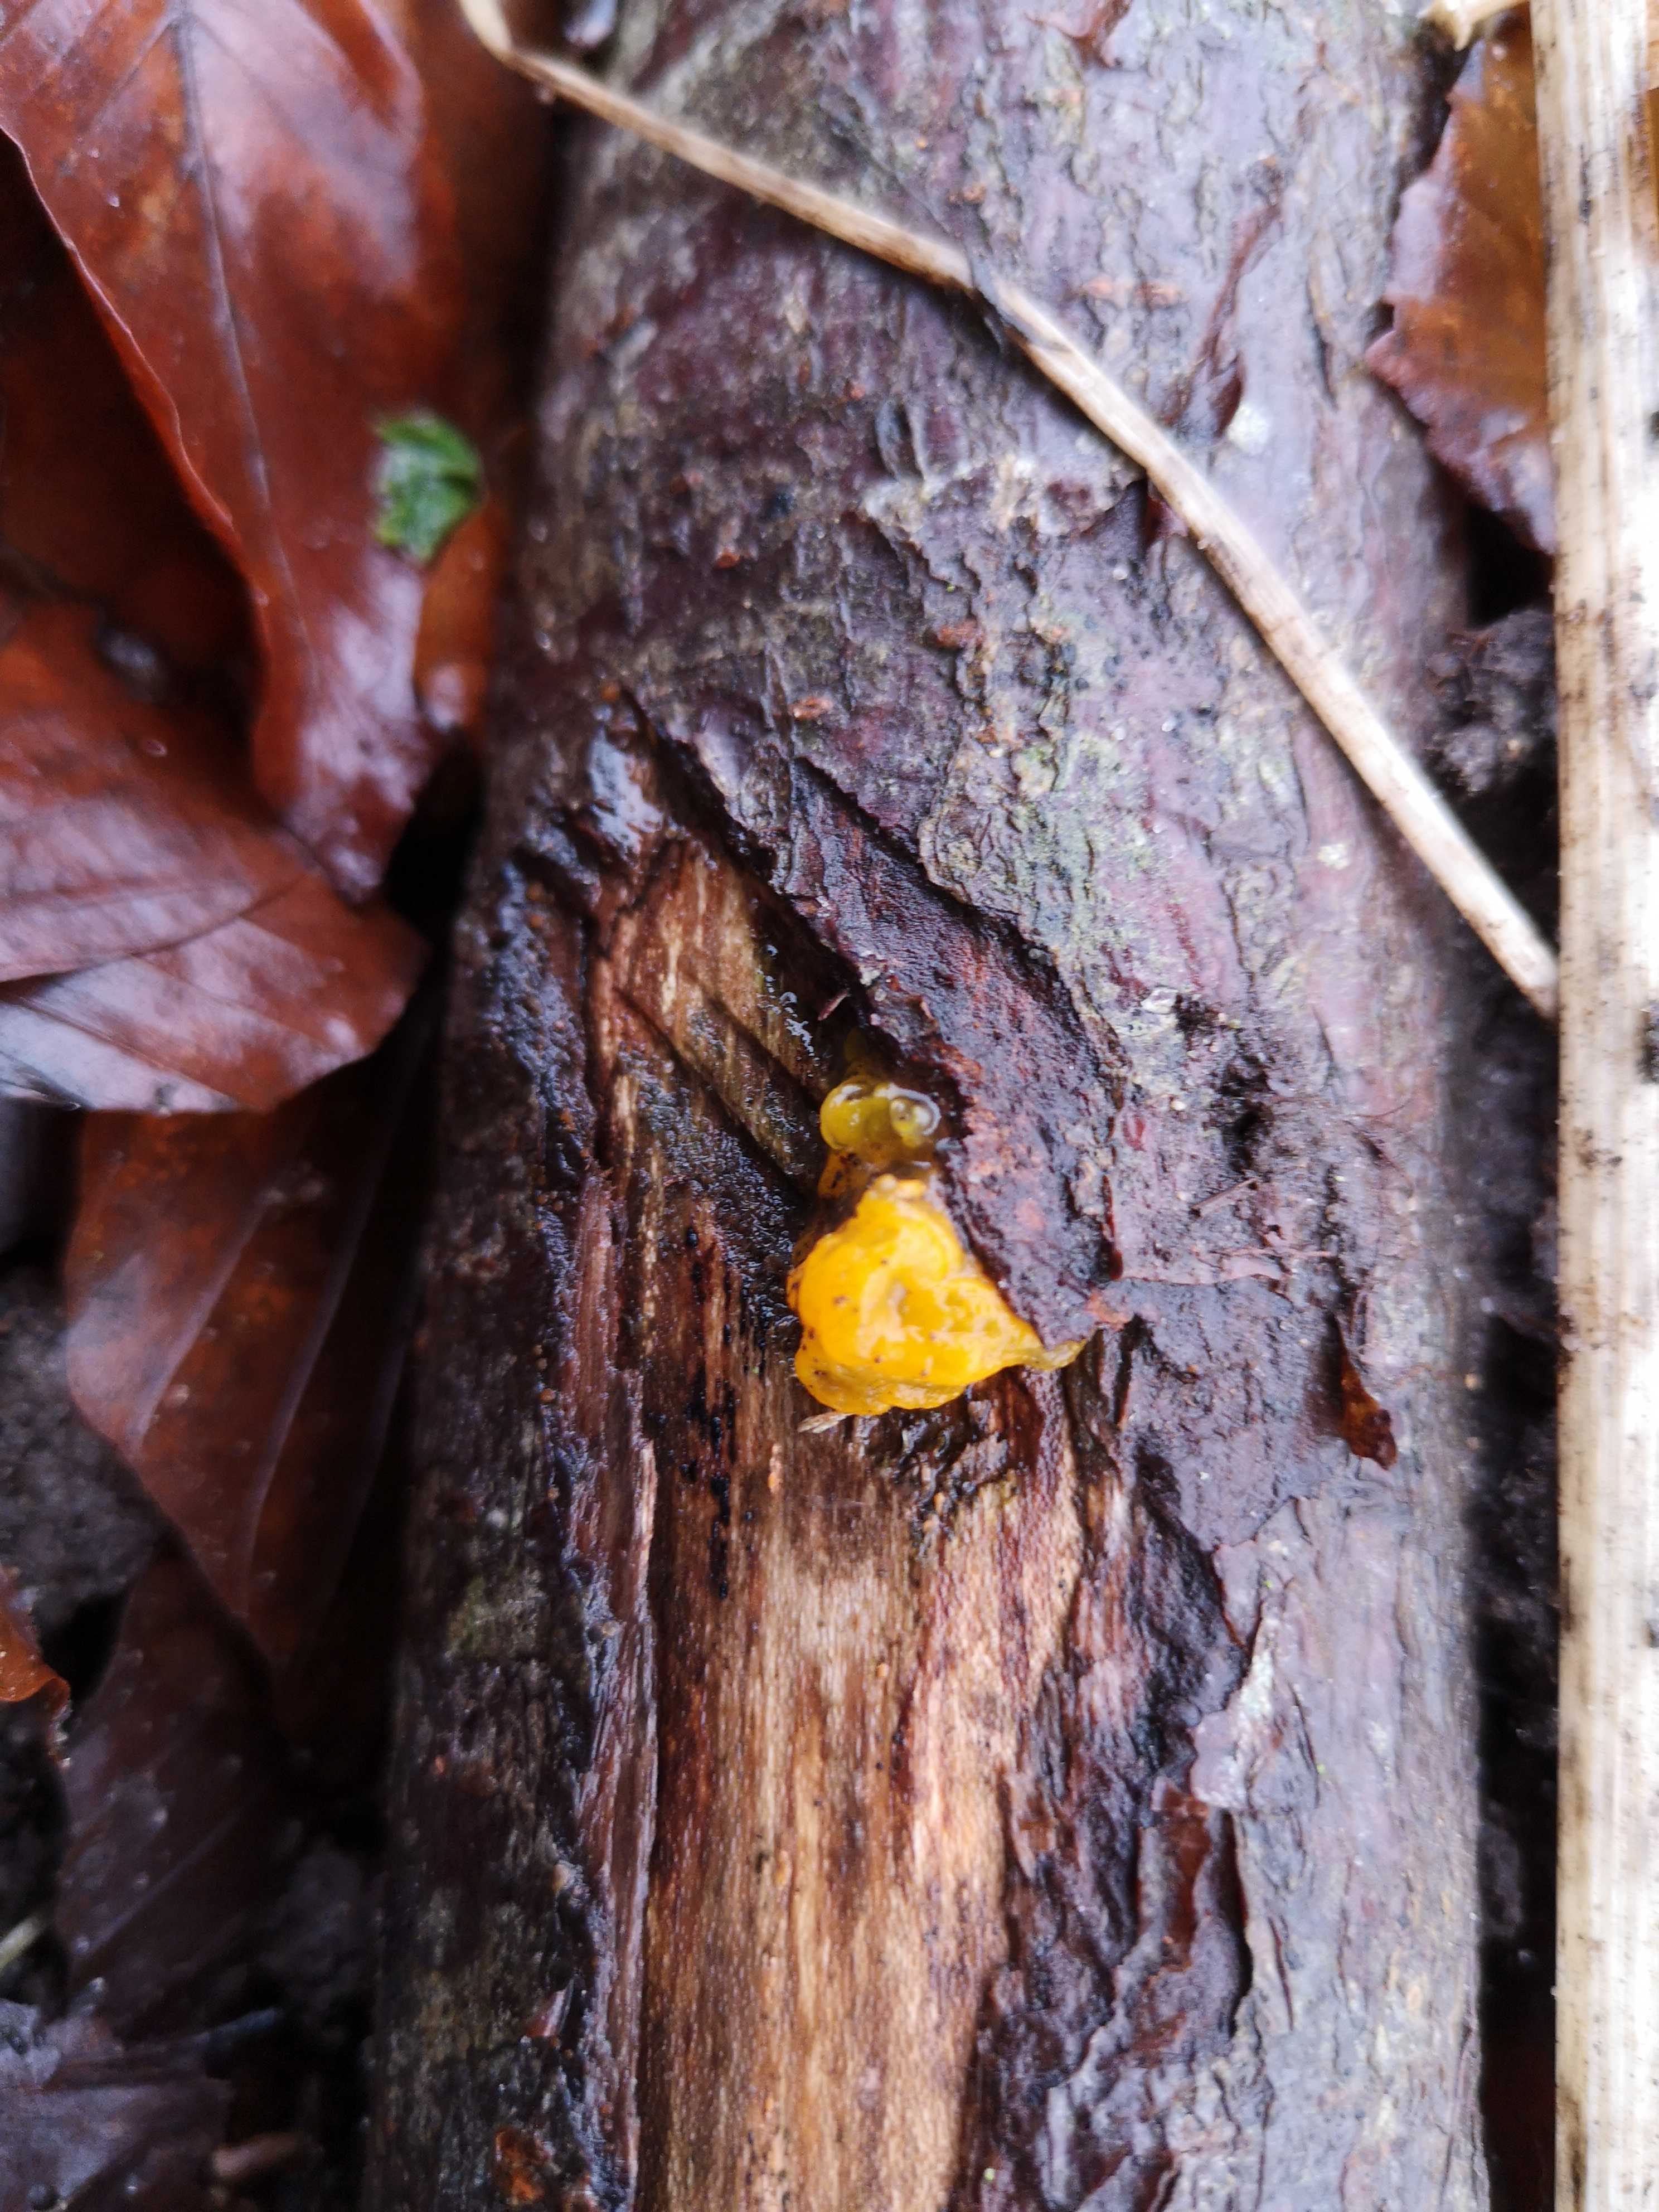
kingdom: Fungi
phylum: Basidiomycota
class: Tremellomycetes
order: Tremellales
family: Tremellaceae
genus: Tremella
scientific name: Tremella mesenterica
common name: gul bævresvamp
